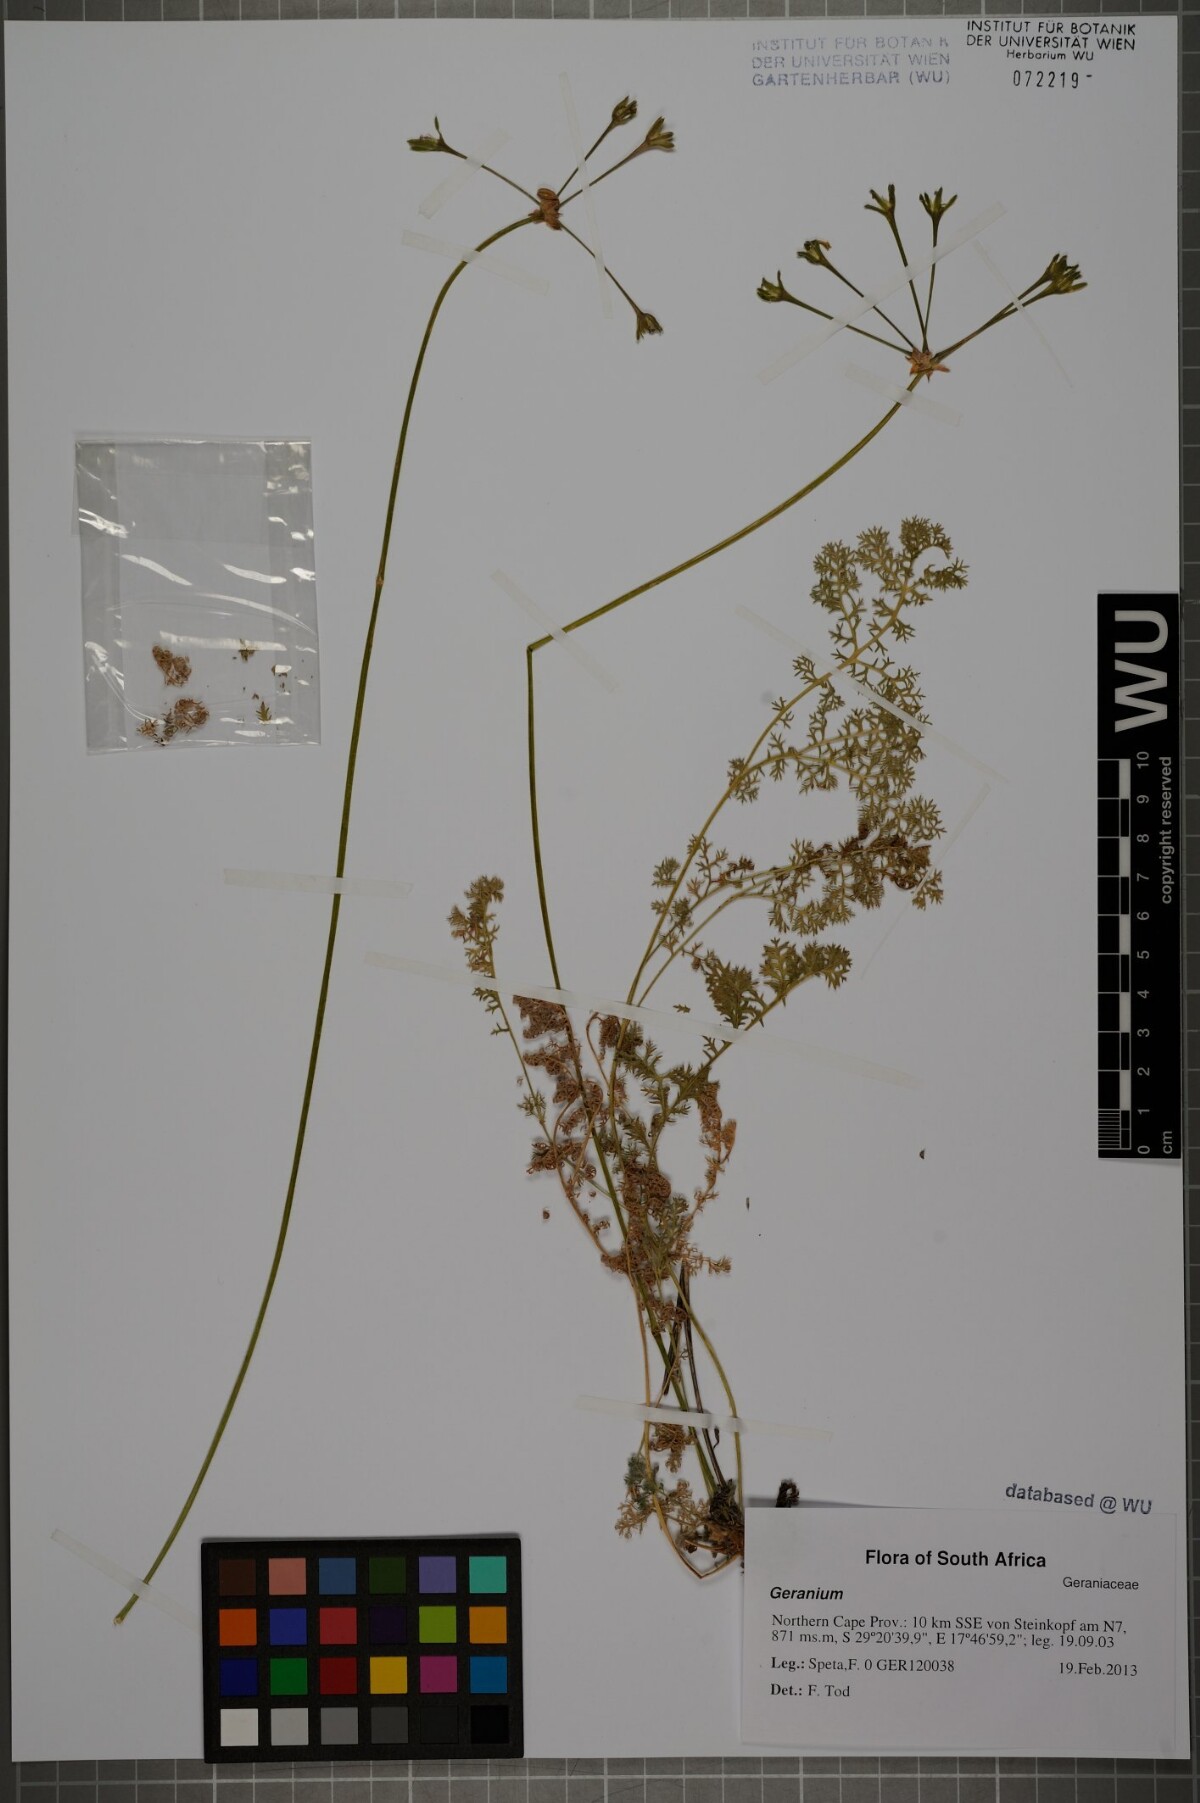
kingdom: Plantae
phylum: Tracheophyta
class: Magnoliopsida
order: Geraniales
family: Geraniaceae
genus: Pelargonium
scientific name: Pelargonium
